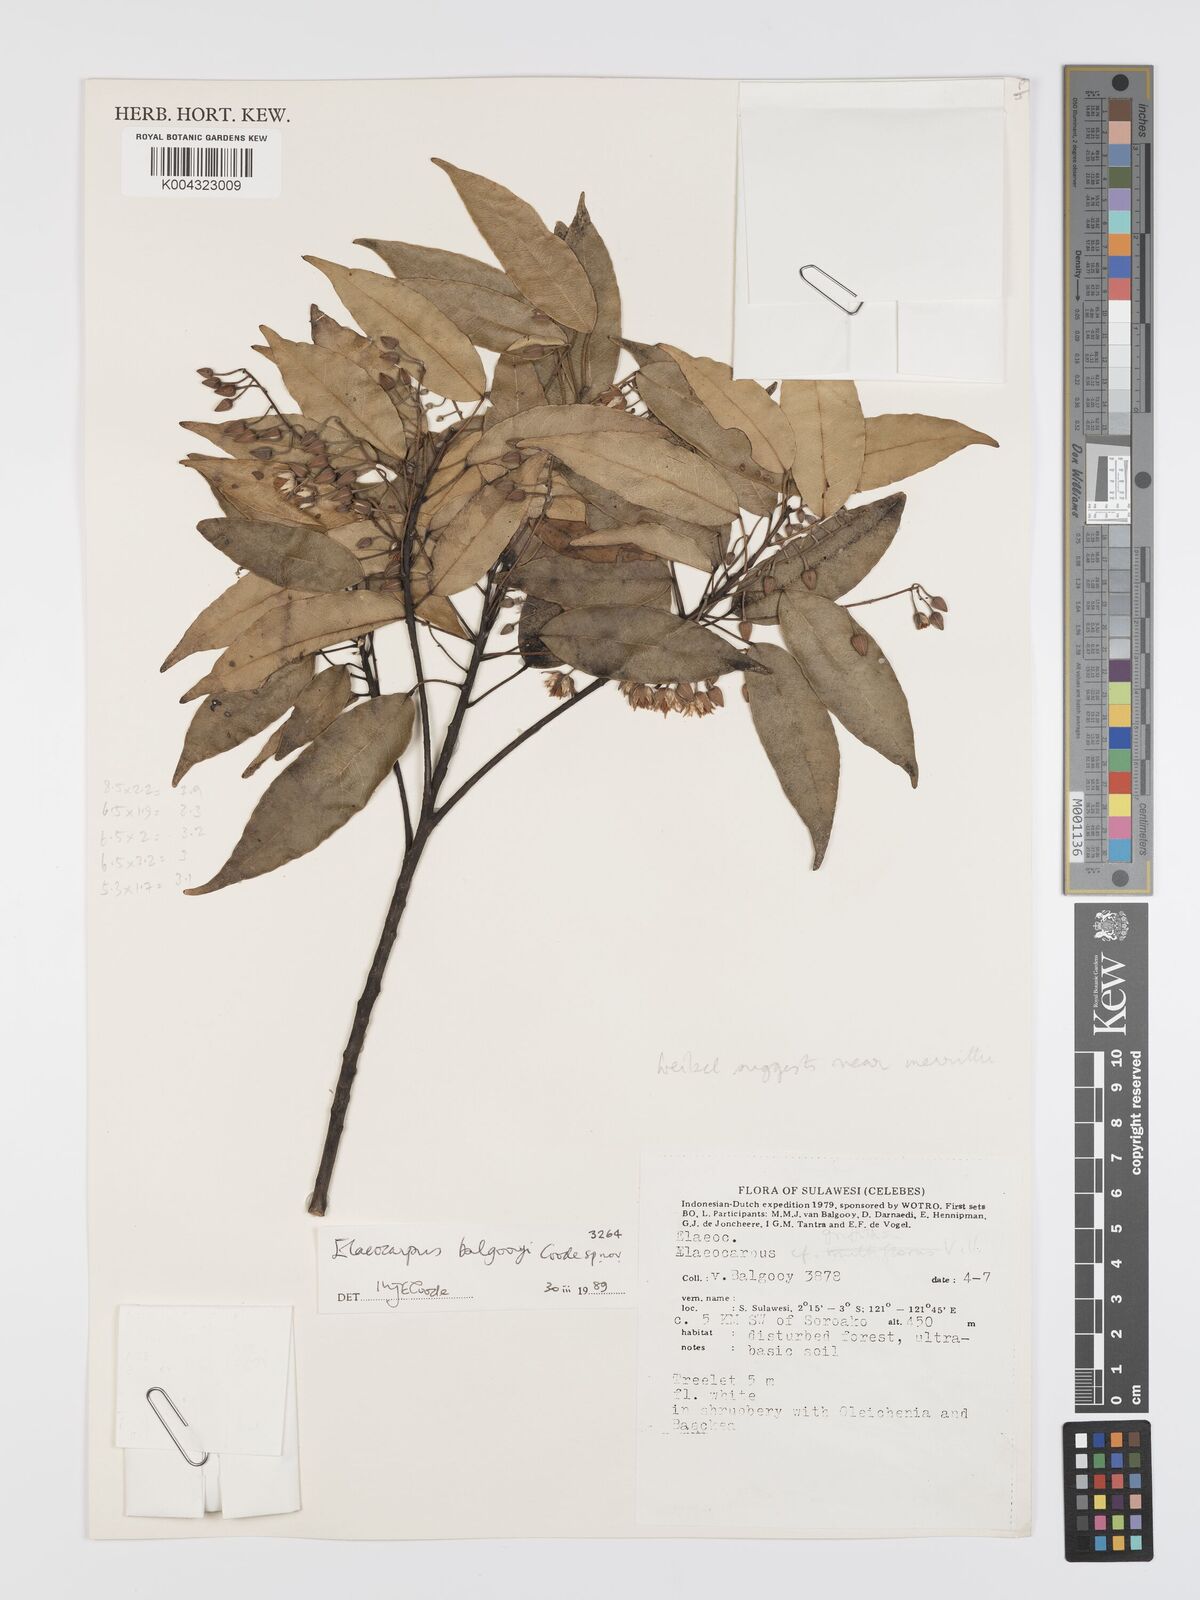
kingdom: Plantae
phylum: Tracheophyta
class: Magnoliopsida
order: Oxalidales
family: Elaeocarpaceae
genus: Elaeocarpus
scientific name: Elaeocarpus balgooyi
